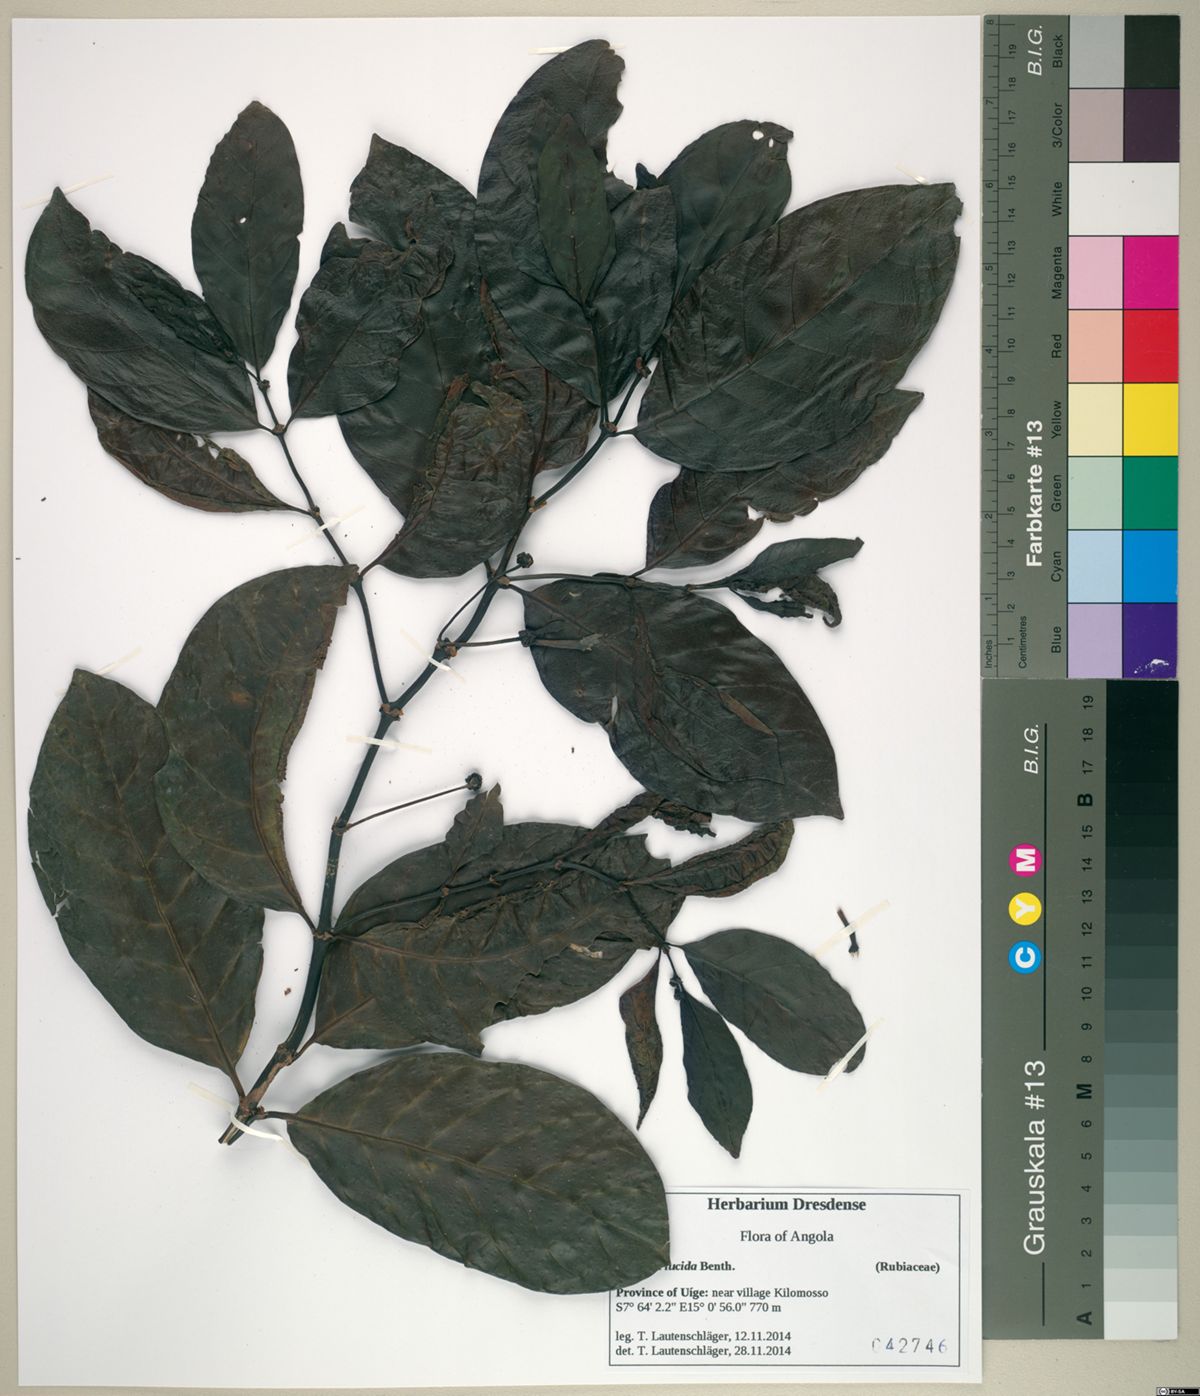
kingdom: Plantae
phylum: Tracheophyta
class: Magnoliopsida
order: Gentianales
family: Rubiaceae
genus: Morinda
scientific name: Morinda lucida
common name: Brimstonetree
